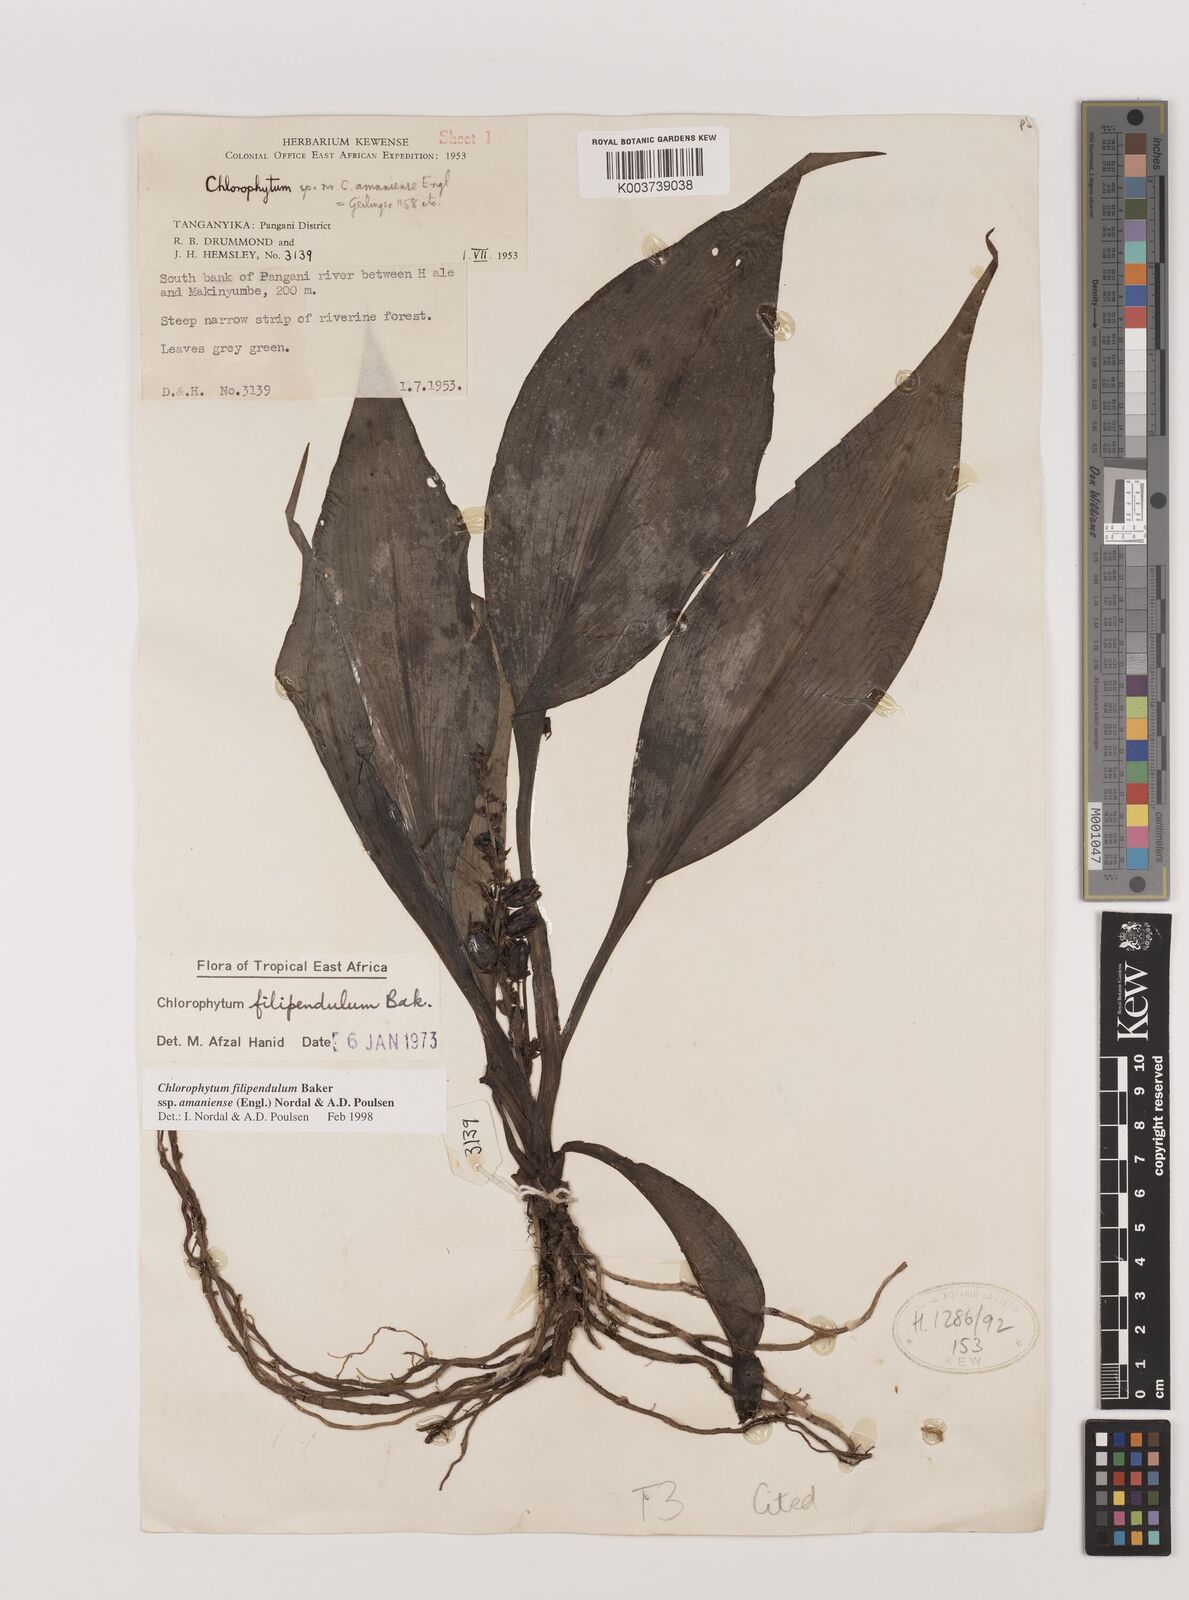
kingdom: Plantae
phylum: Tracheophyta
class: Liliopsida
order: Asparagales
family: Asparagaceae
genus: Chlorophytum
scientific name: Chlorophytum filipendulum
